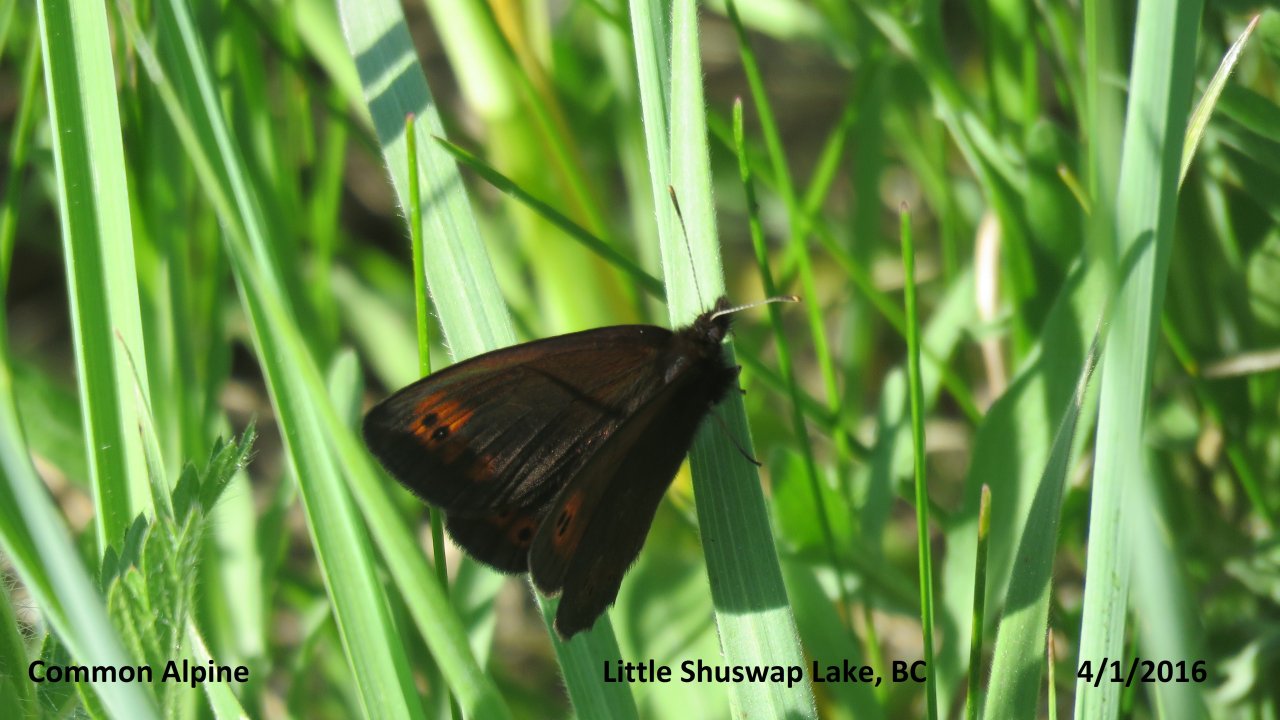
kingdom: Animalia
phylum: Arthropoda
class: Insecta
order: Lepidoptera
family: Nymphalidae
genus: Erebia
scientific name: Erebia epipsodea
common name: Common Alpine
